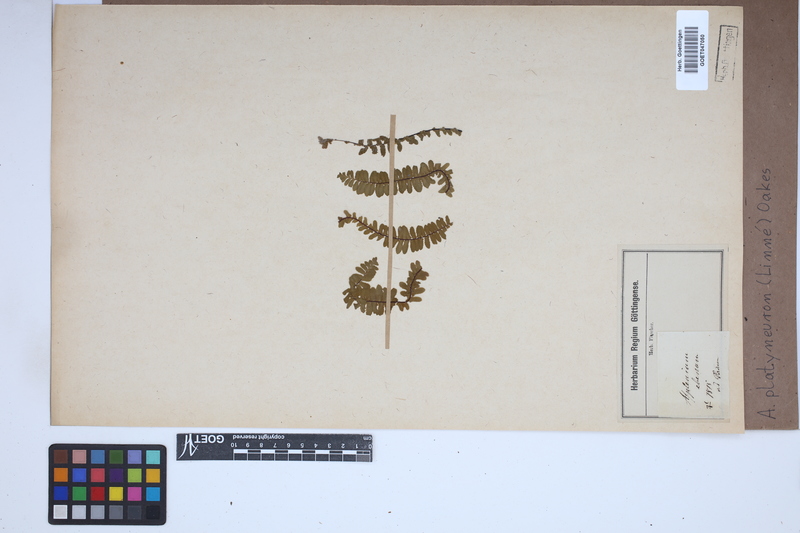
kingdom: Plantae
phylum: Tracheophyta
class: Polypodiopsida
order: Polypodiales
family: Aspleniaceae
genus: Asplenium
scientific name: Asplenium platyneuron
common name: Ebony spleenwort
